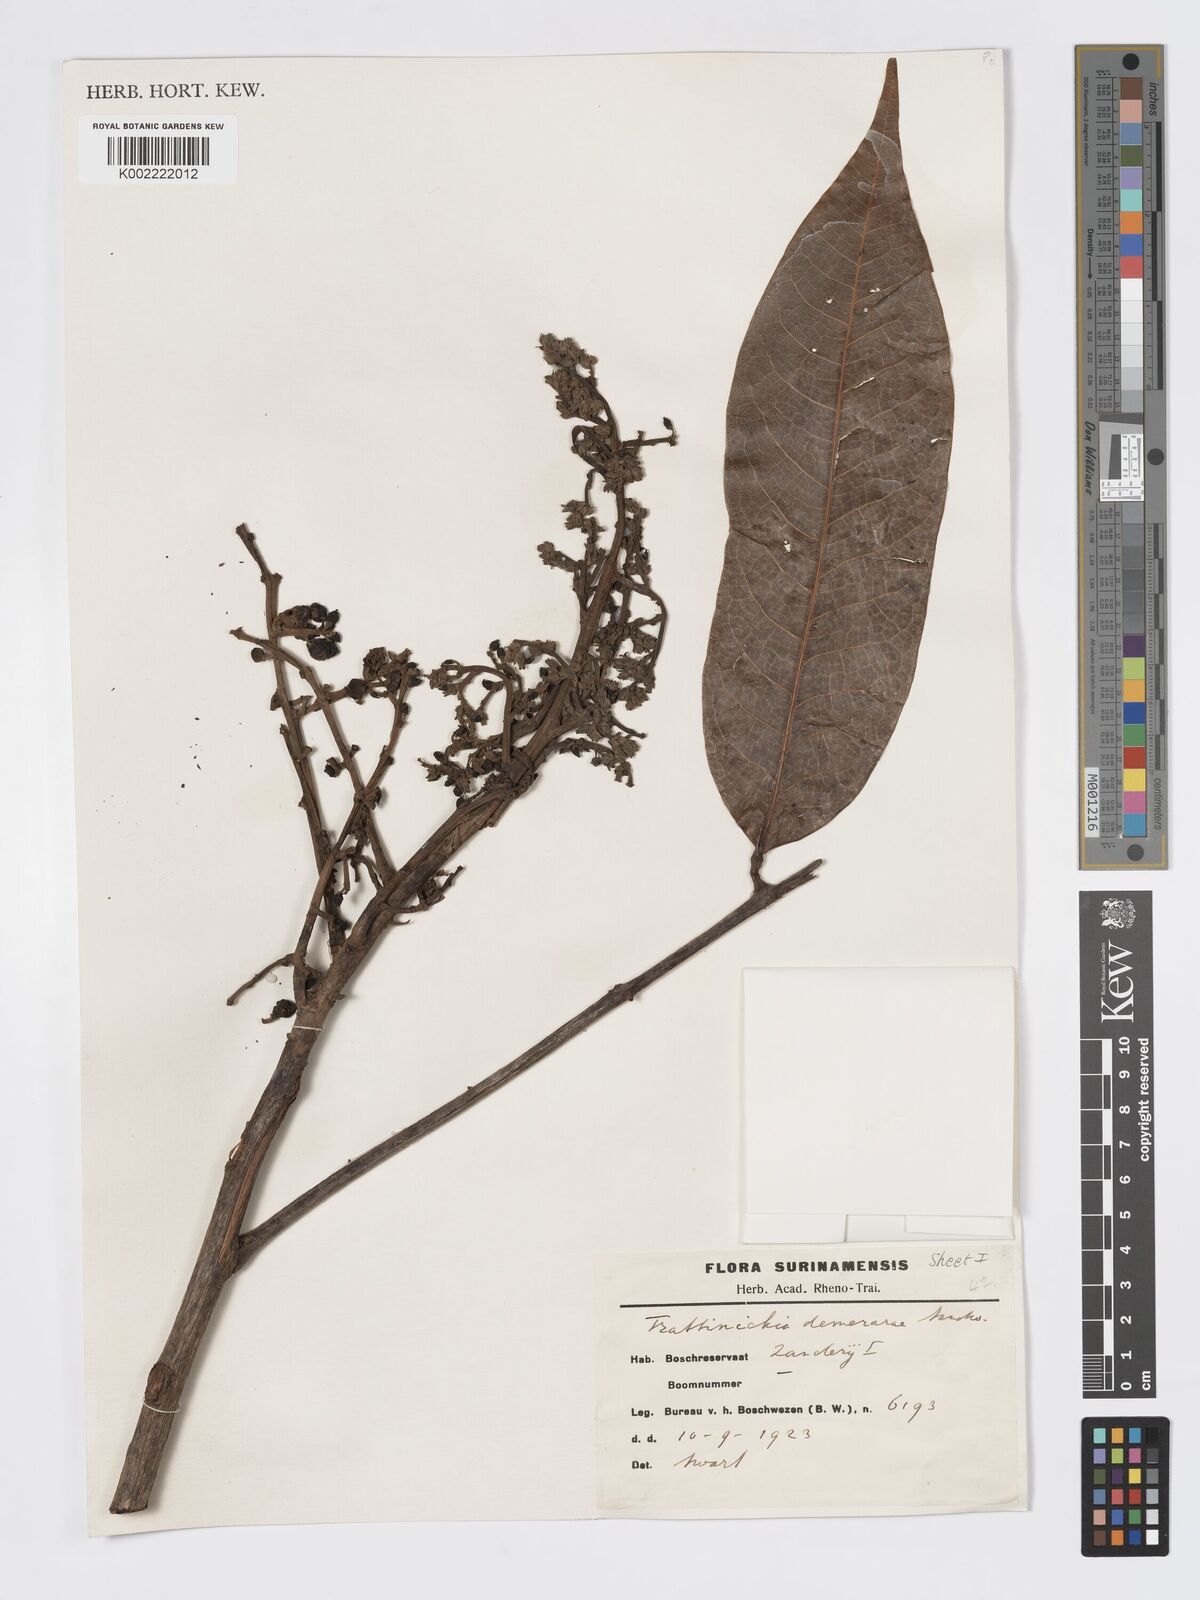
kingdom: Plantae
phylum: Tracheophyta
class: Magnoliopsida
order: Sapindales
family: Burseraceae
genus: Trattinnickia
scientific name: Trattinnickia demerarae
